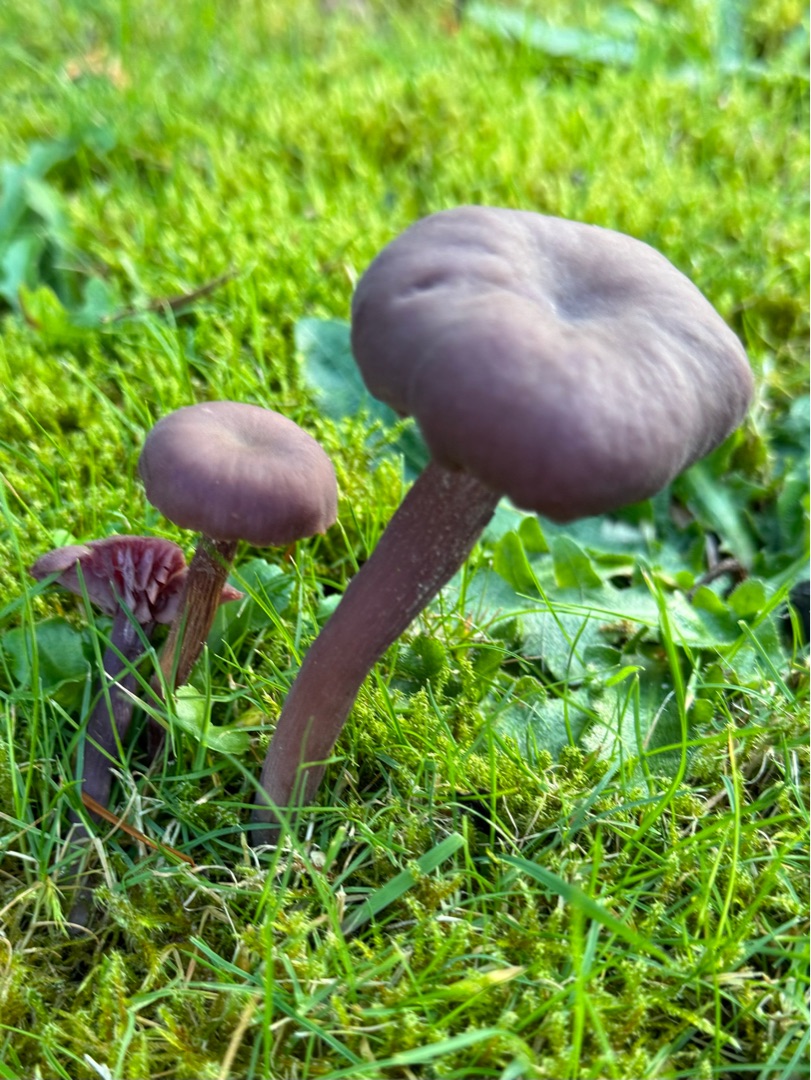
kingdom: Fungi
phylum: Basidiomycota
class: Agaricomycetes
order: Agaricales
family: Hydnangiaceae
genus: Laccaria
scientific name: Laccaria amethystina
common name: Violet ametysthat
